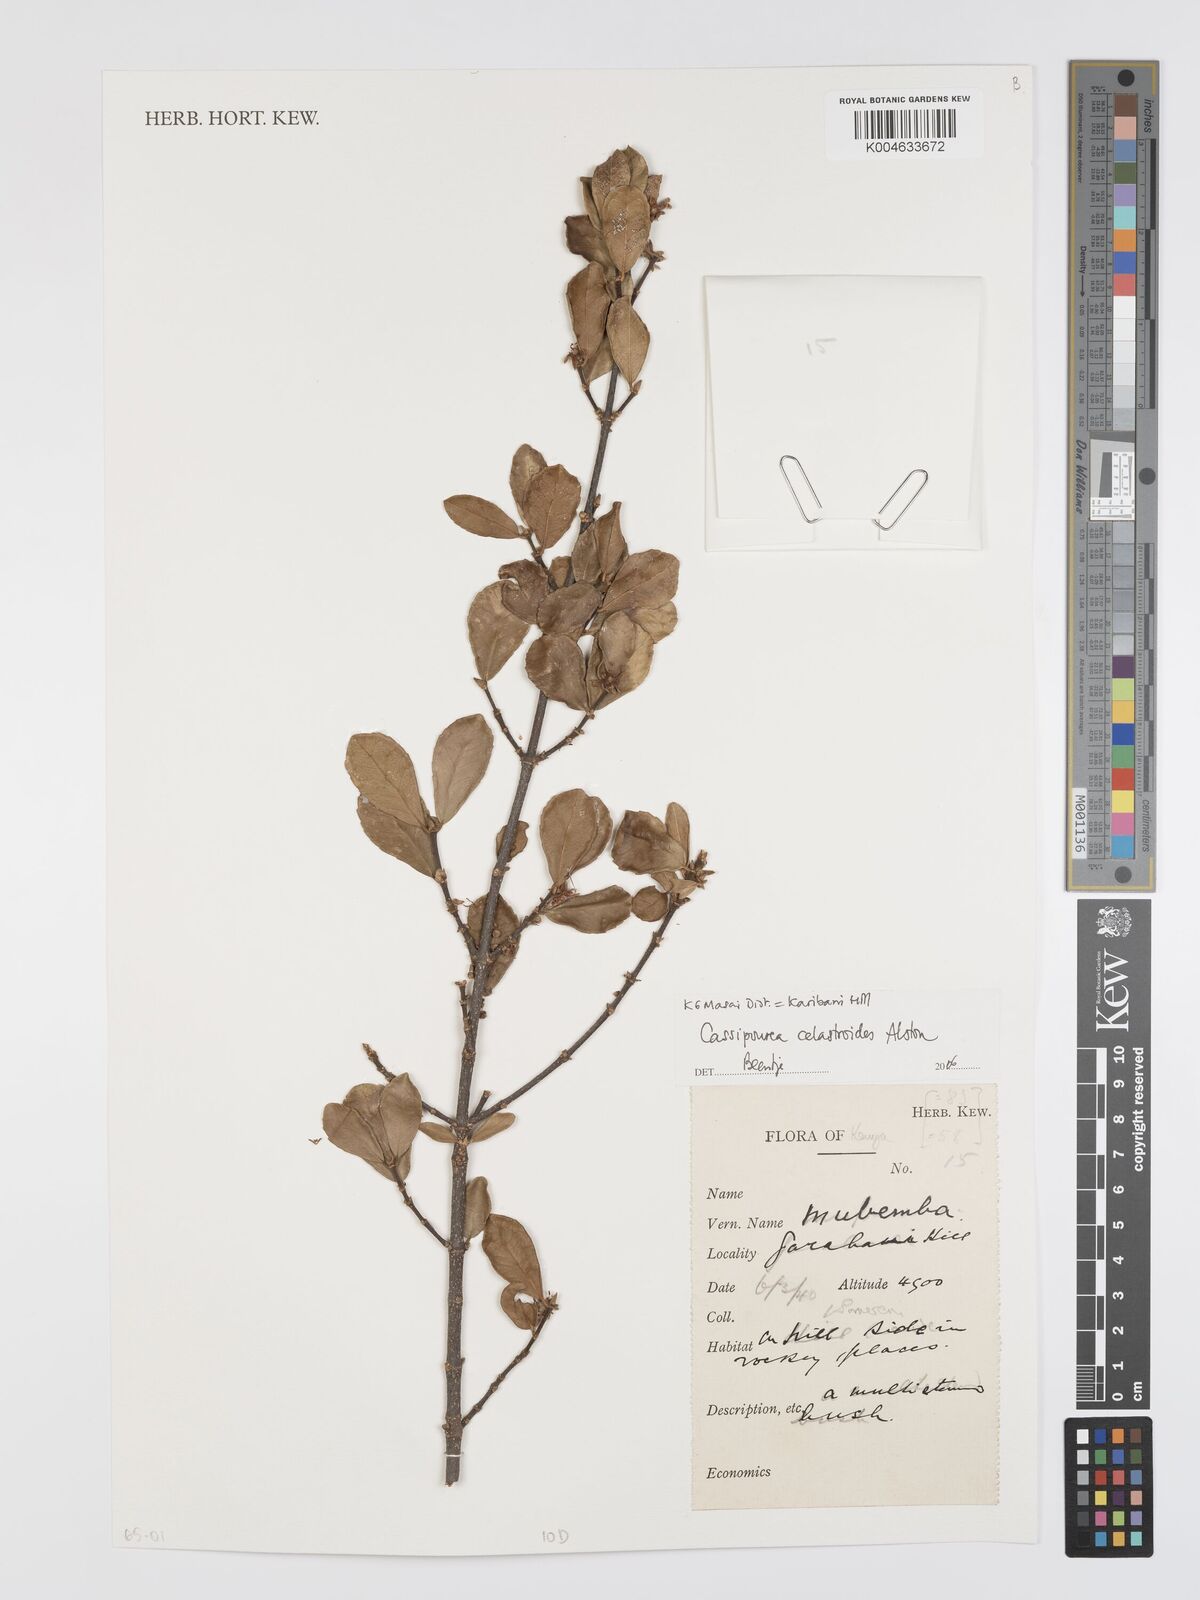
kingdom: Plantae
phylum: Tracheophyta
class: Magnoliopsida
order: Malpighiales
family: Rhizophoraceae
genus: Cassipourea
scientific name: Cassipourea celastroides
